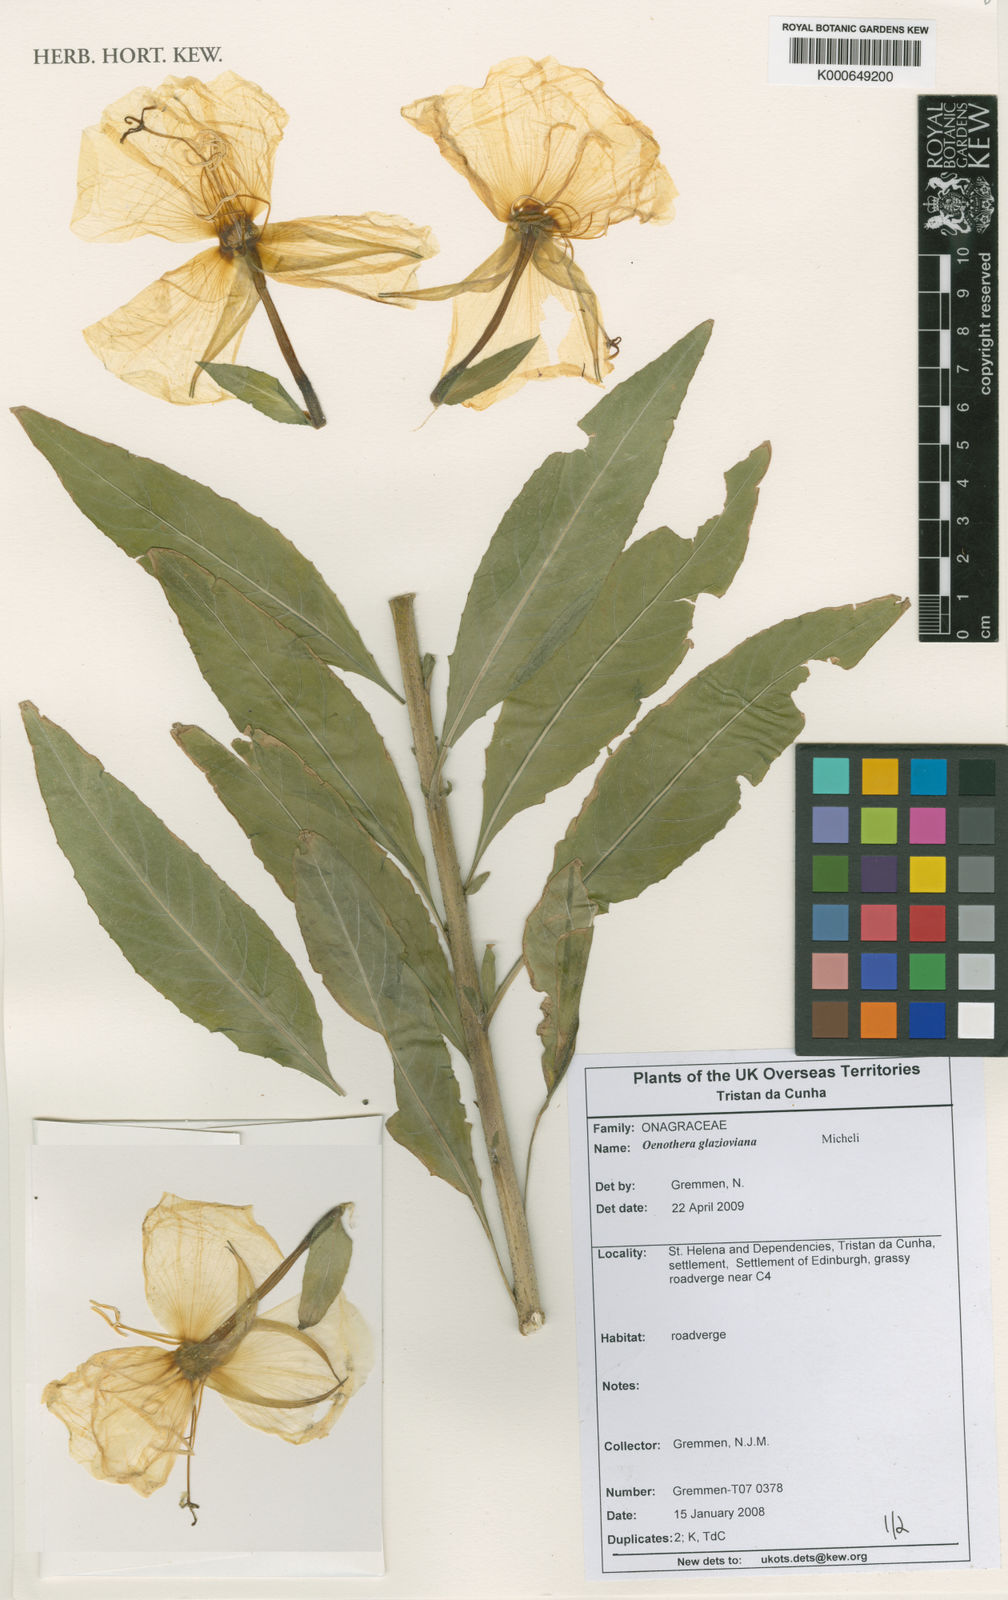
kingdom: Plantae
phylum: Tracheophyta
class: Magnoliopsida
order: Gentianales
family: Rubiaceae
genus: Galium
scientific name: Galium australe
